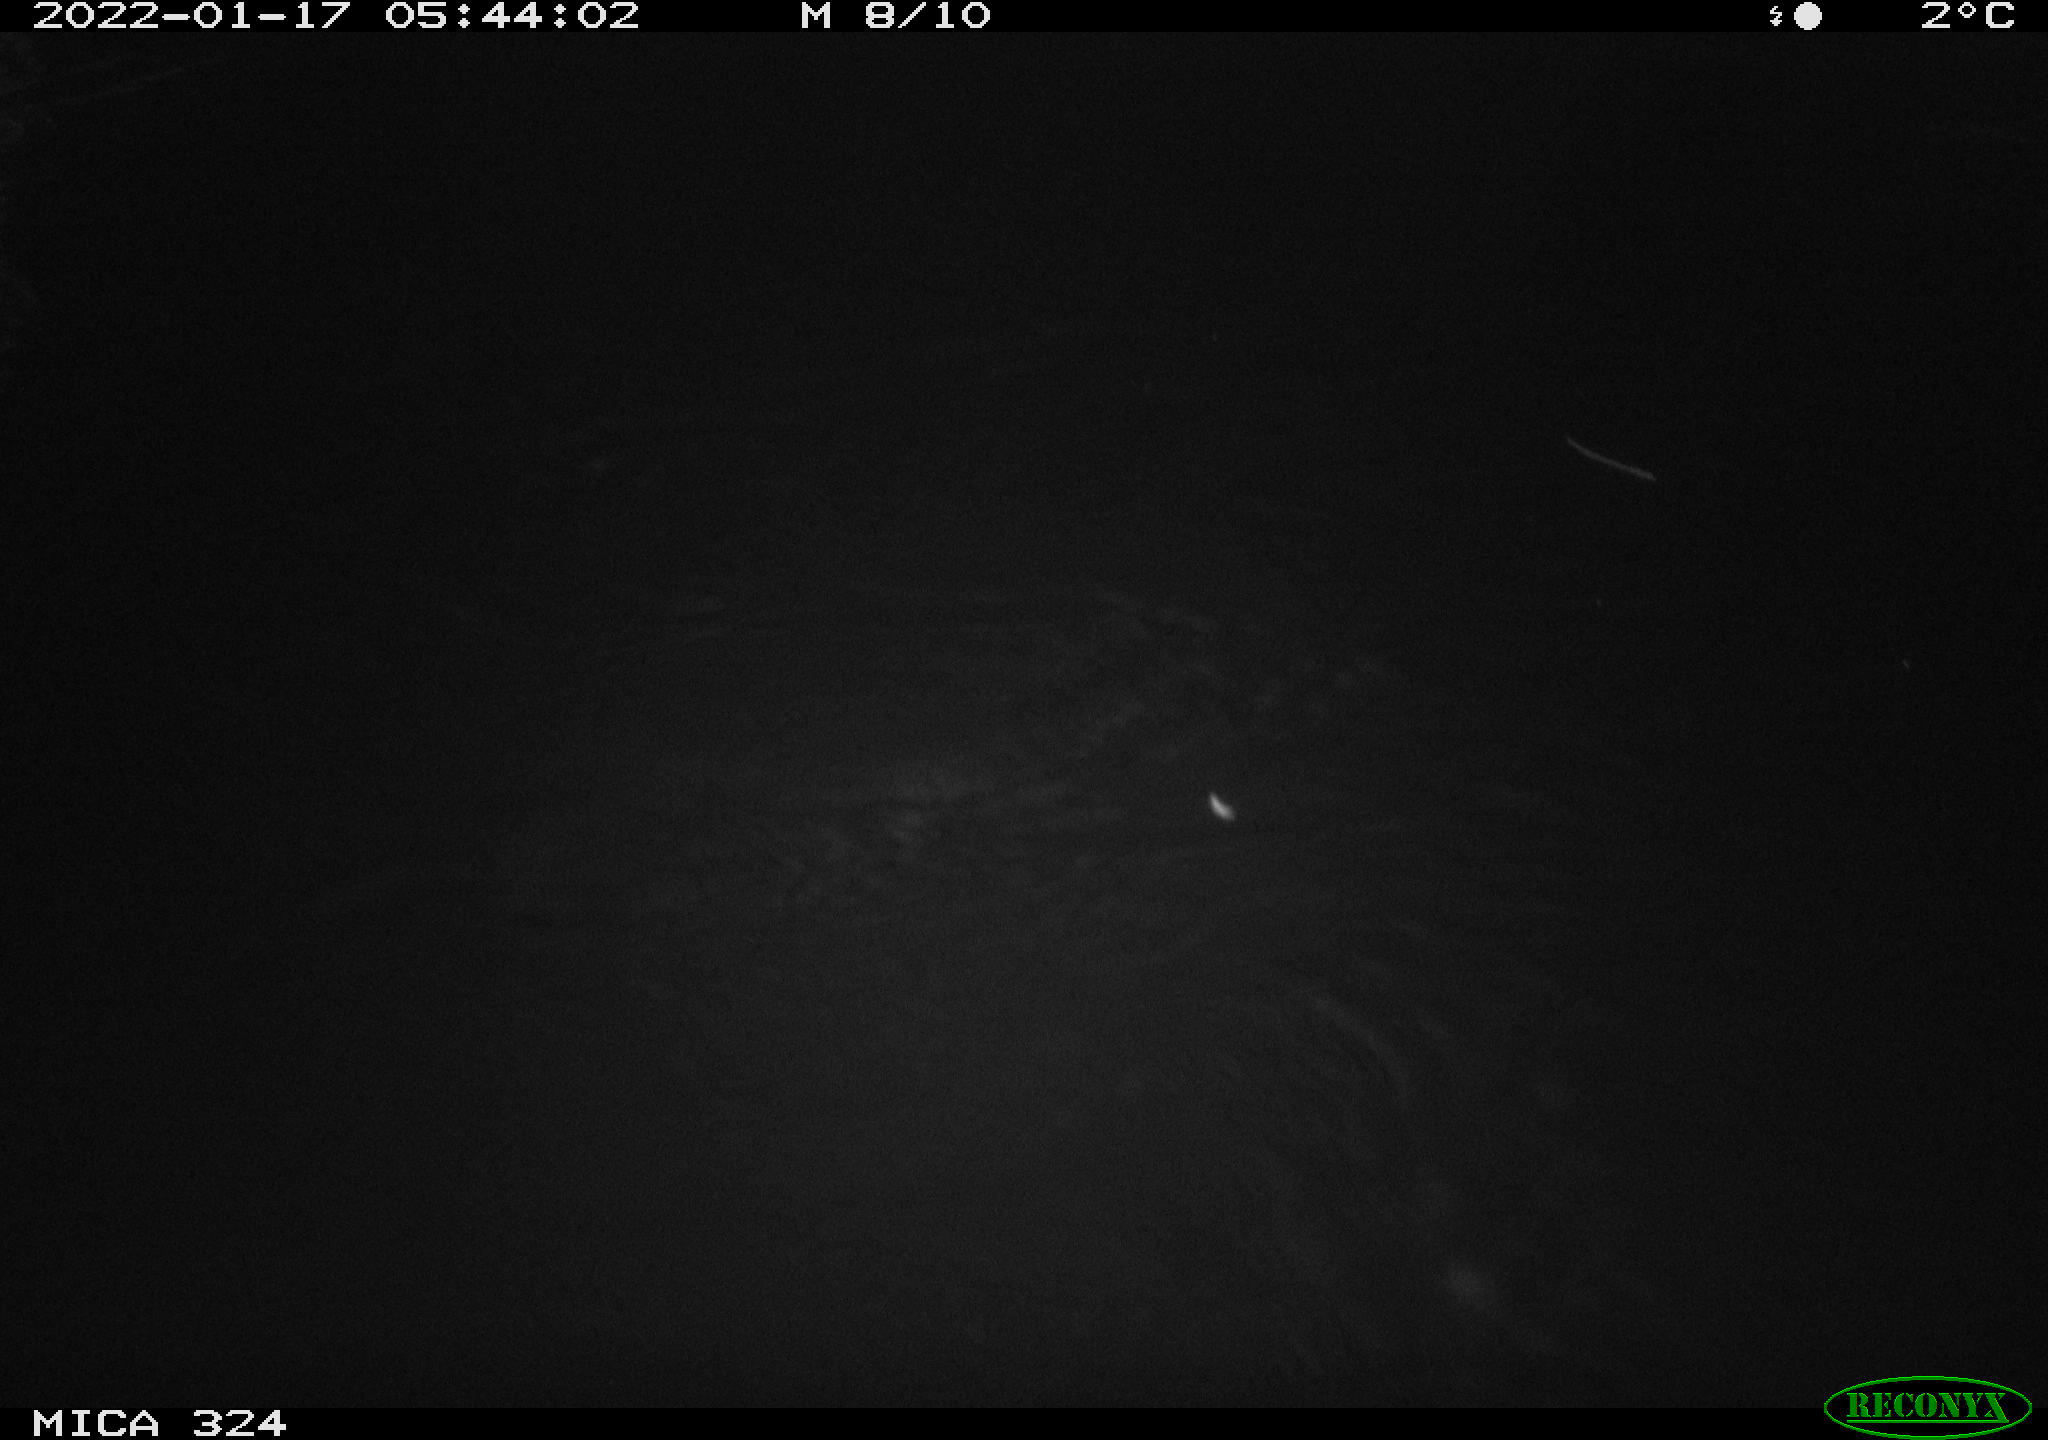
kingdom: Animalia
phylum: Chordata
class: Mammalia
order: Rodentia
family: Cricetidae
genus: Ondatra
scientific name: Ondatra zibethicus
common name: Muskrat
